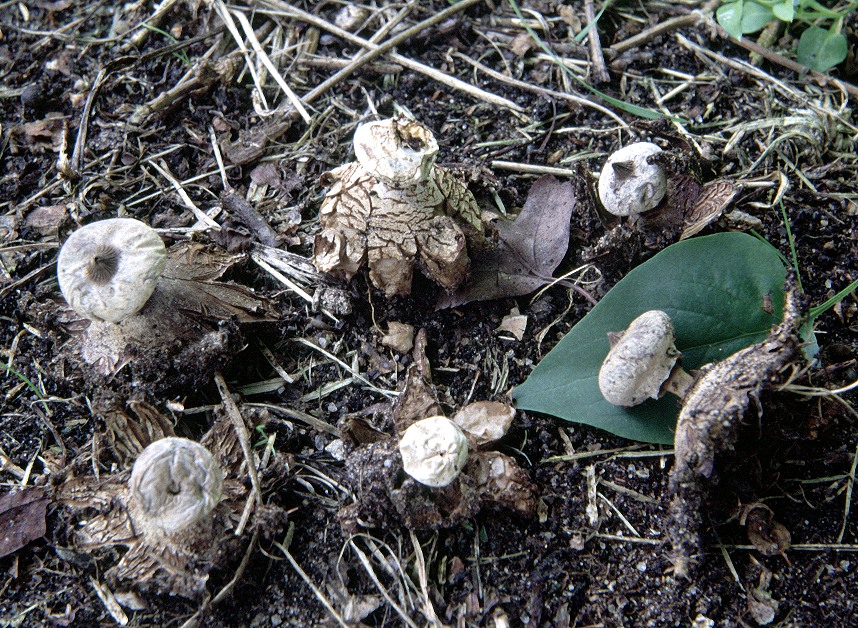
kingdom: Fungi
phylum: Basidiomycota
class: Agaricomycetes
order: Geastrales
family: Geastraceae
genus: Geastrum
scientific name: Geastrum striatum
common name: krave-stjernebold
